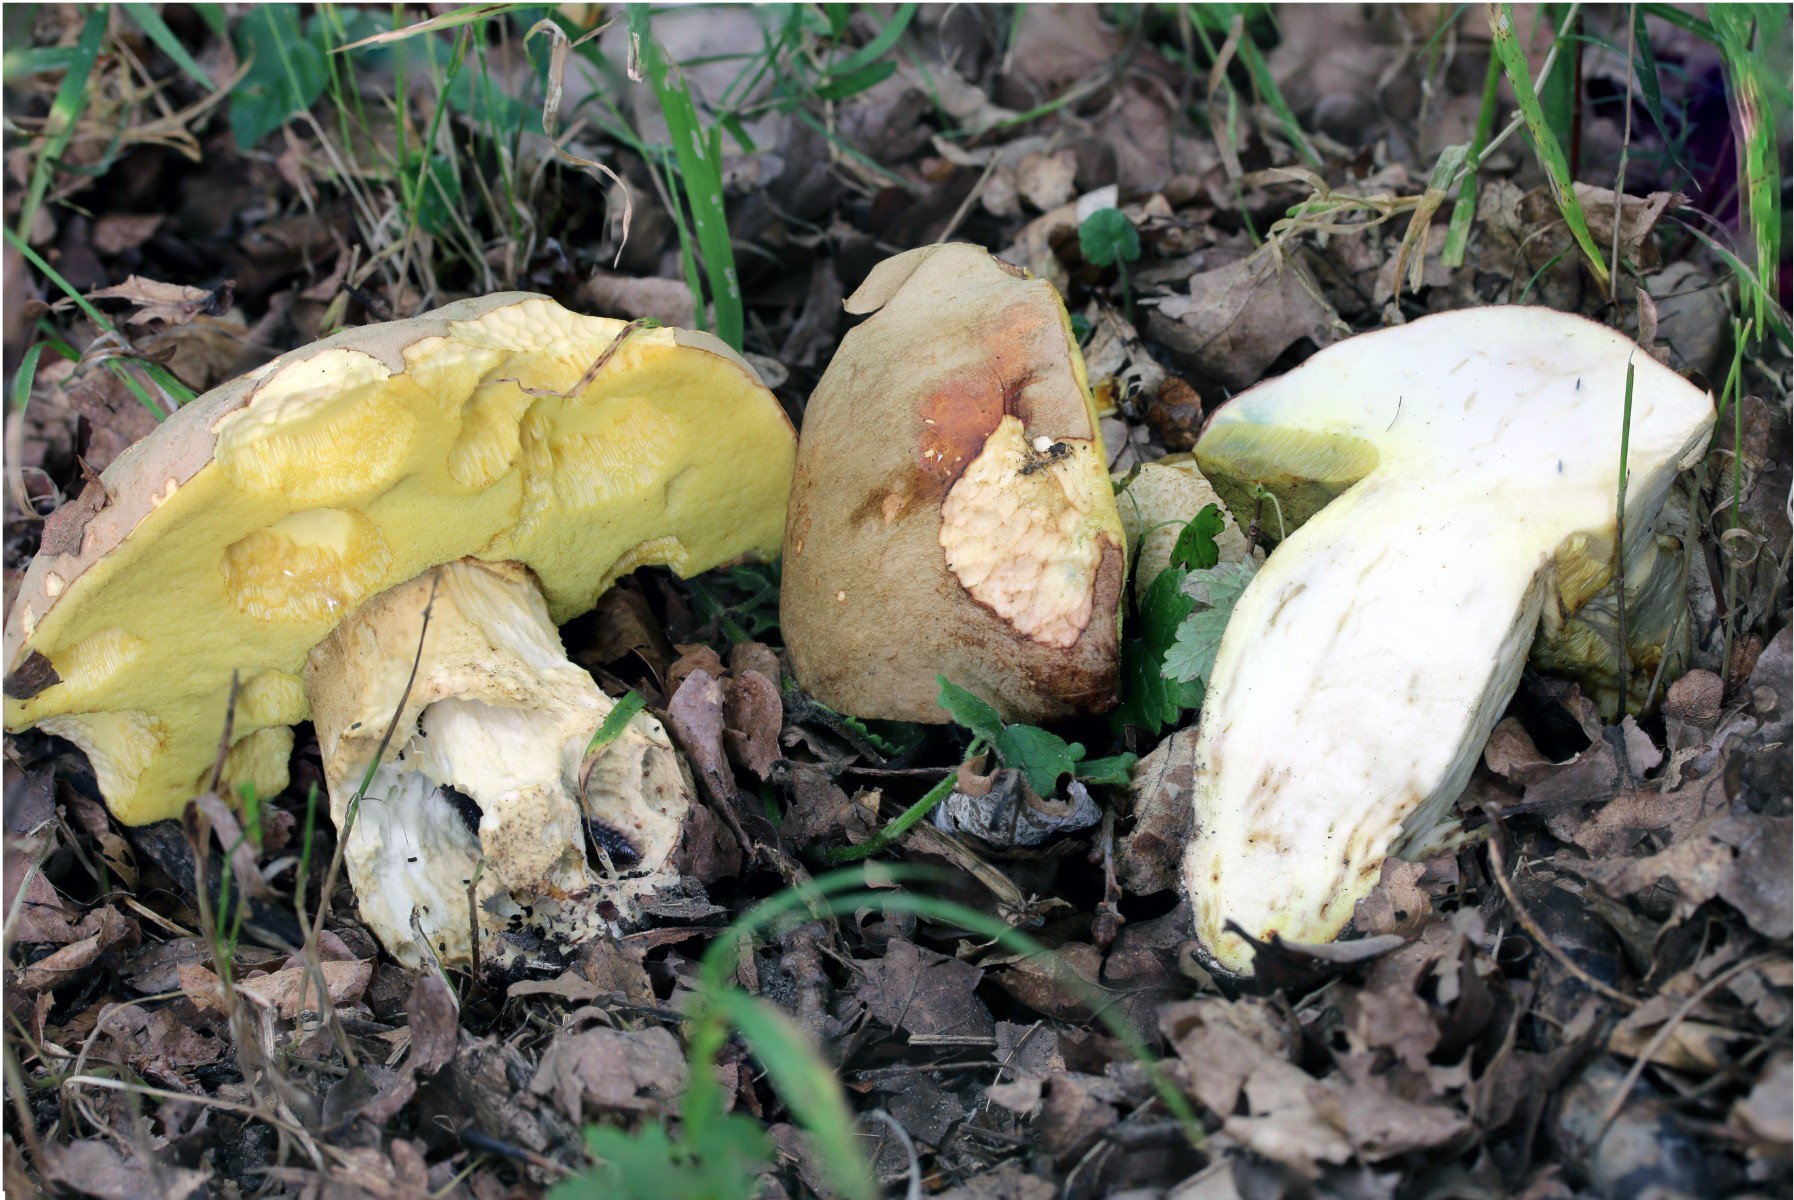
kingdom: Fungi
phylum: Basidiomycota
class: Agaricomycetes
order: Boletales
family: Boletaceae
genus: Hemileccinum
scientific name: Hemileccinum impolitum
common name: bleg rørhat
